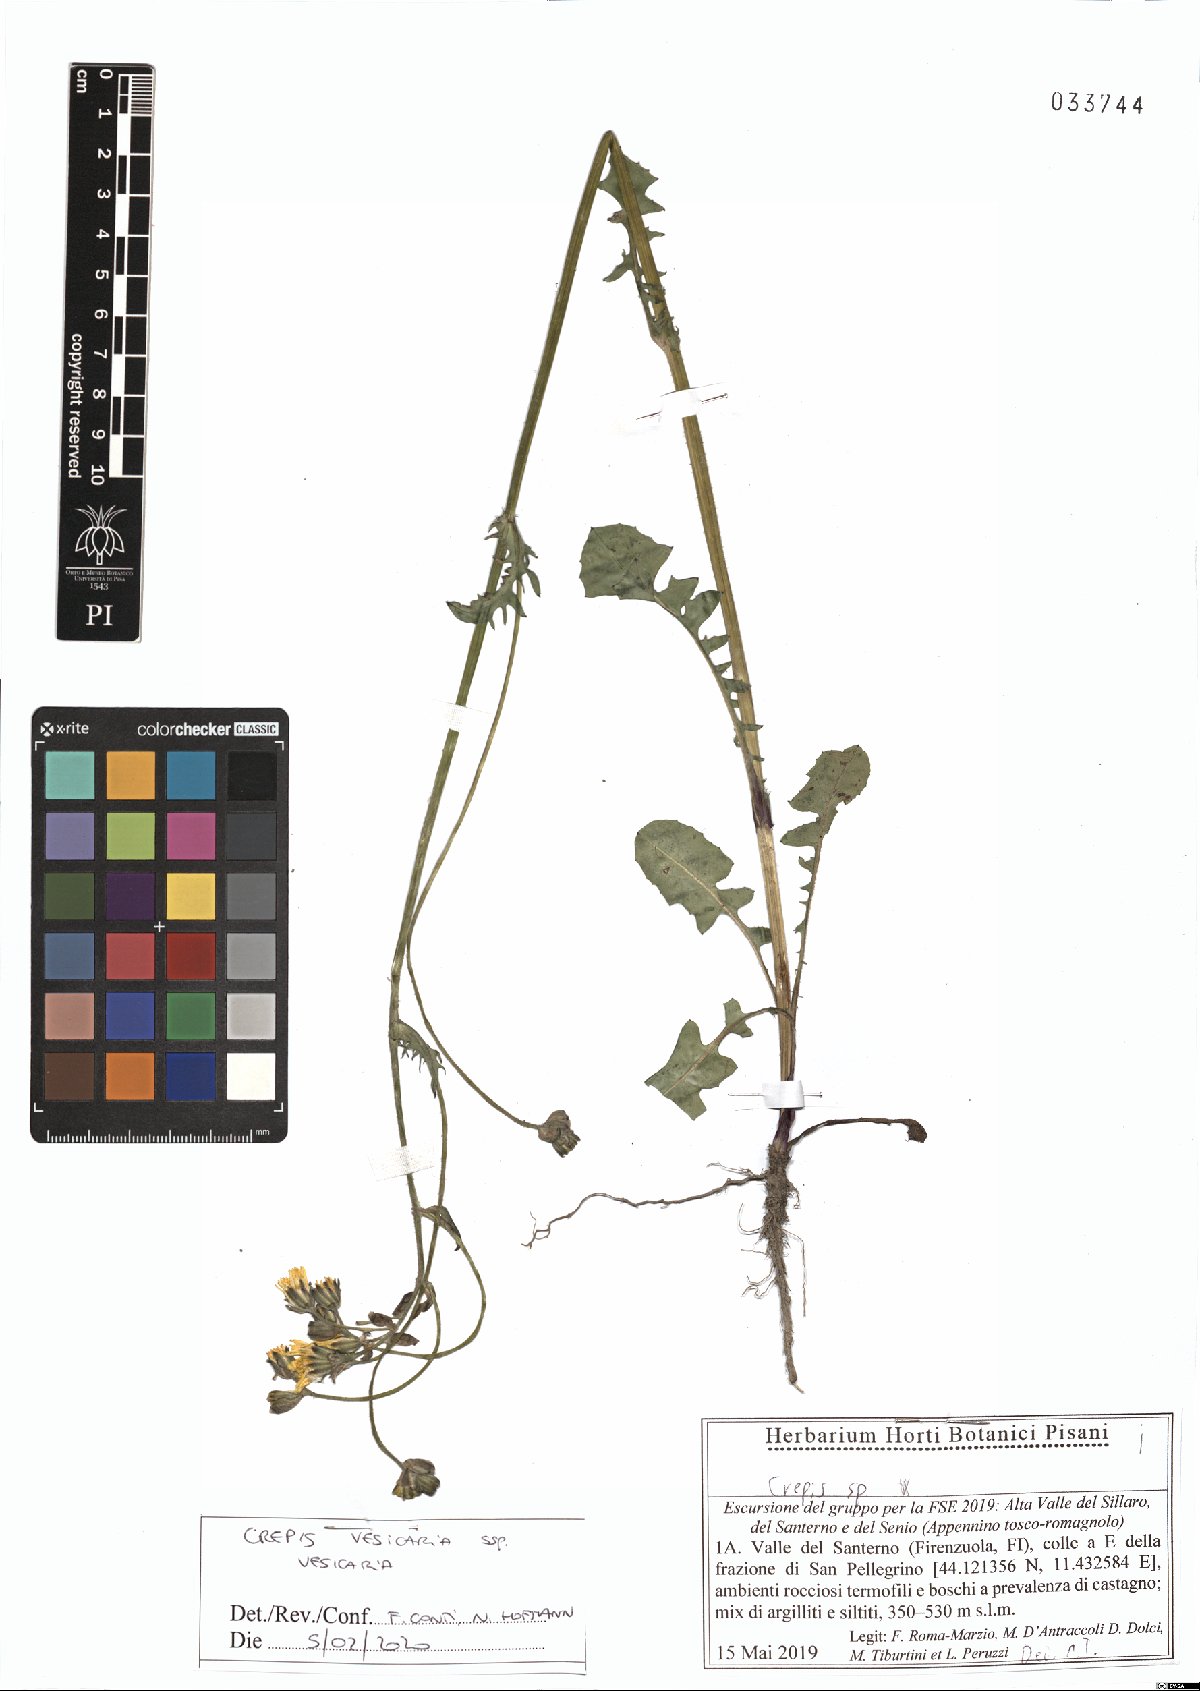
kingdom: Plantae
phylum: Tracheophyta
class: Magnoliopsida
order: Asterales
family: Asteraceae
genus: Crepis
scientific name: Crepis vesicaria
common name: Beaked hawksbeard
